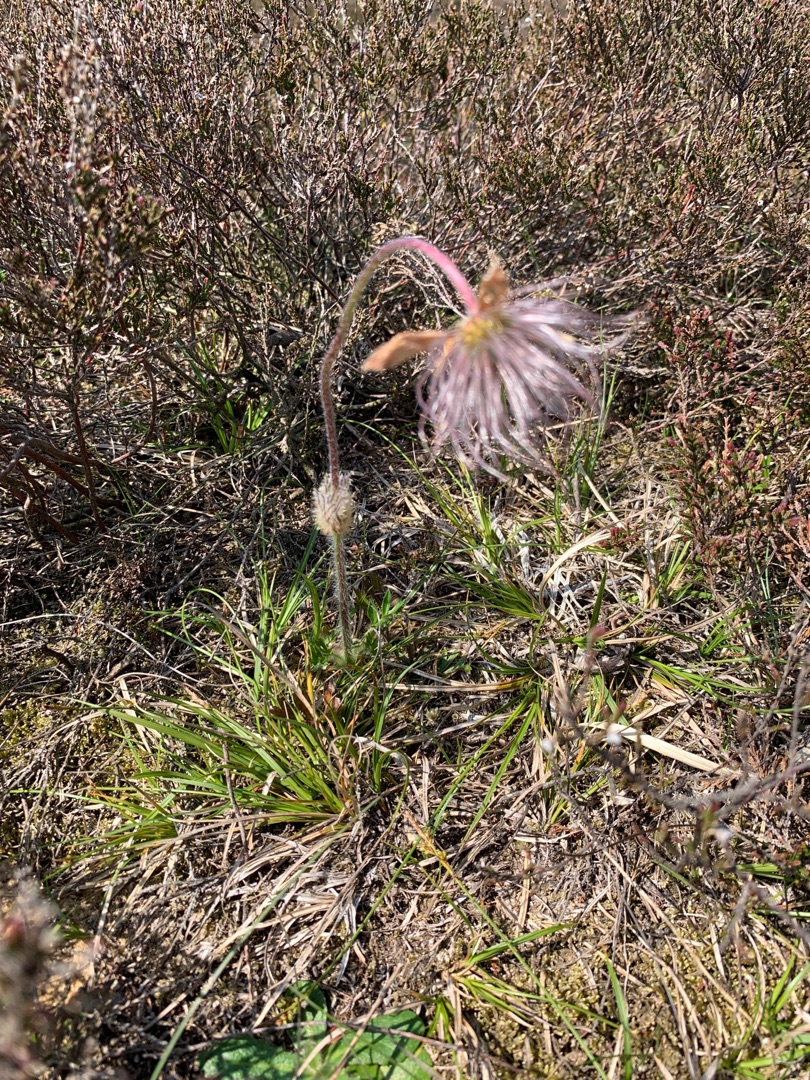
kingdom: Plantae
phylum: Tracheophyta
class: Magnoliopsida
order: Ranunculales
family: Ranunculaceae
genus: Pulsatilla
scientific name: Pulsatilla vernalis
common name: Vår-kobjælde
